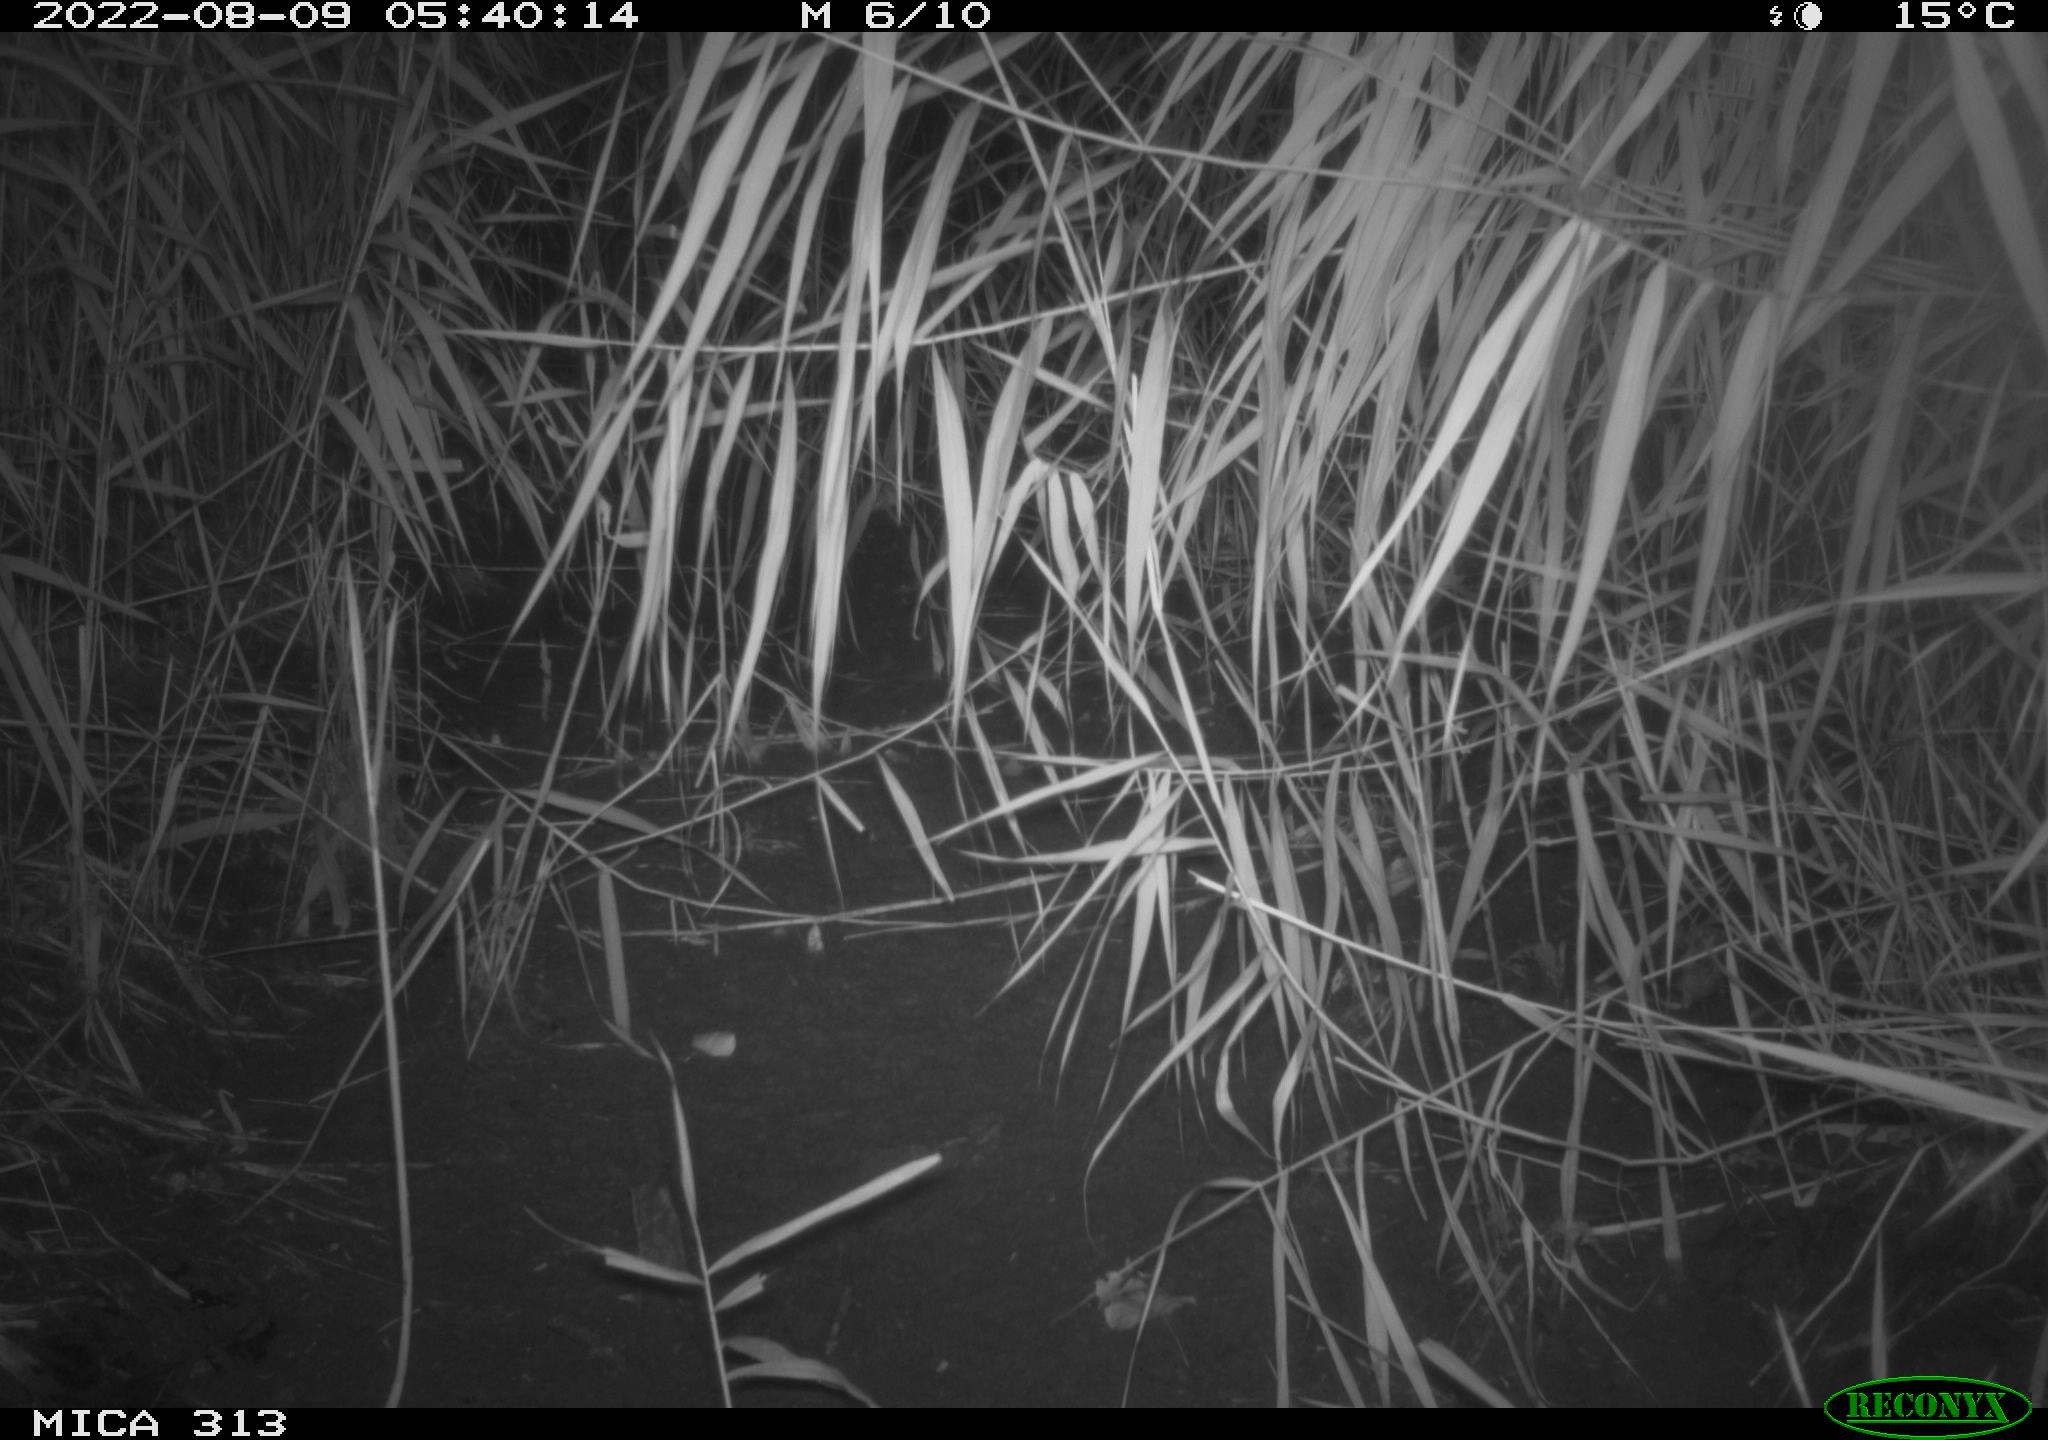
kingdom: Animalia
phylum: Chordata
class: Mammalia
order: Rodentia
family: Muridae
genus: Rattus
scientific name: Rattus norvegicus
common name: Brown rat
